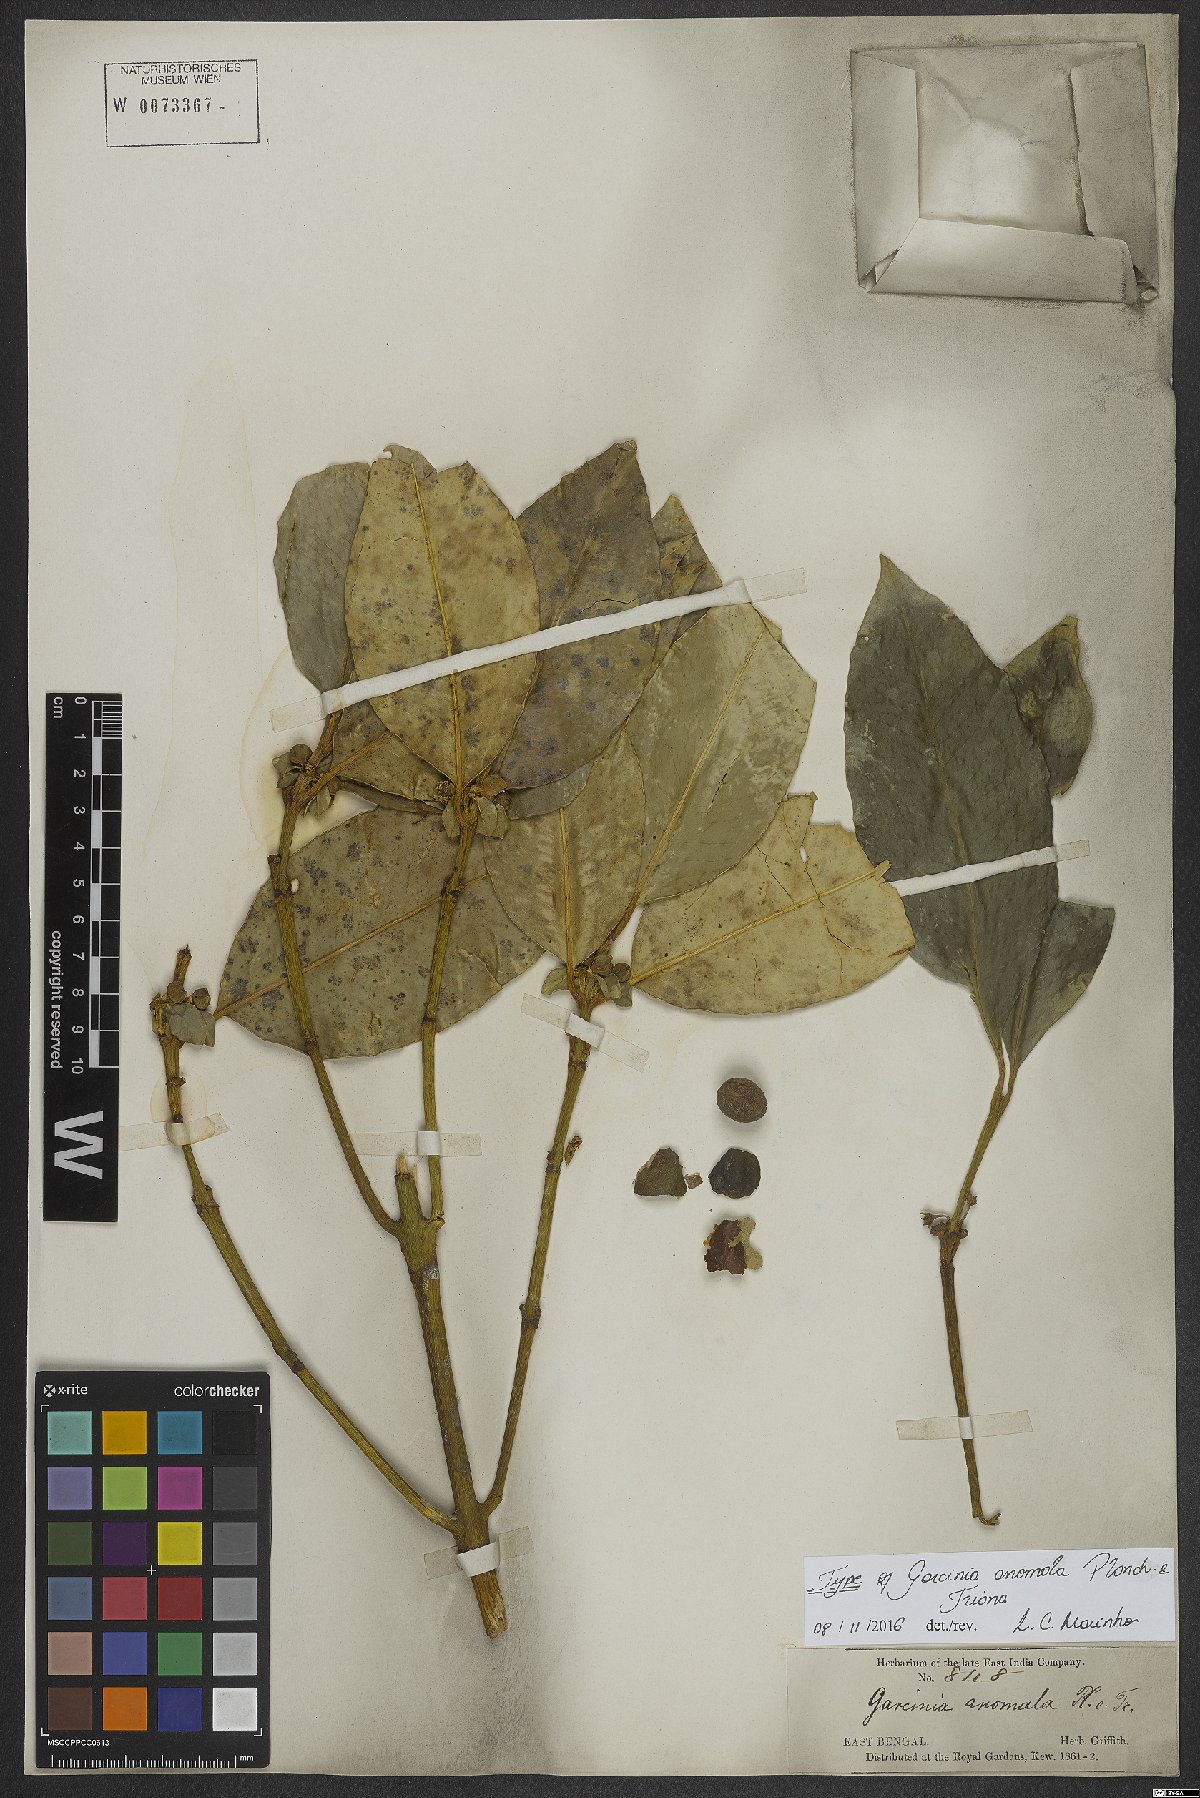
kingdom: Plantae
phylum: Tracheophyta
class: Magnoliopsida
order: Malpighiales
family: Clusiaceae
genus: Garcinia
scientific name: Garcinia anomala
